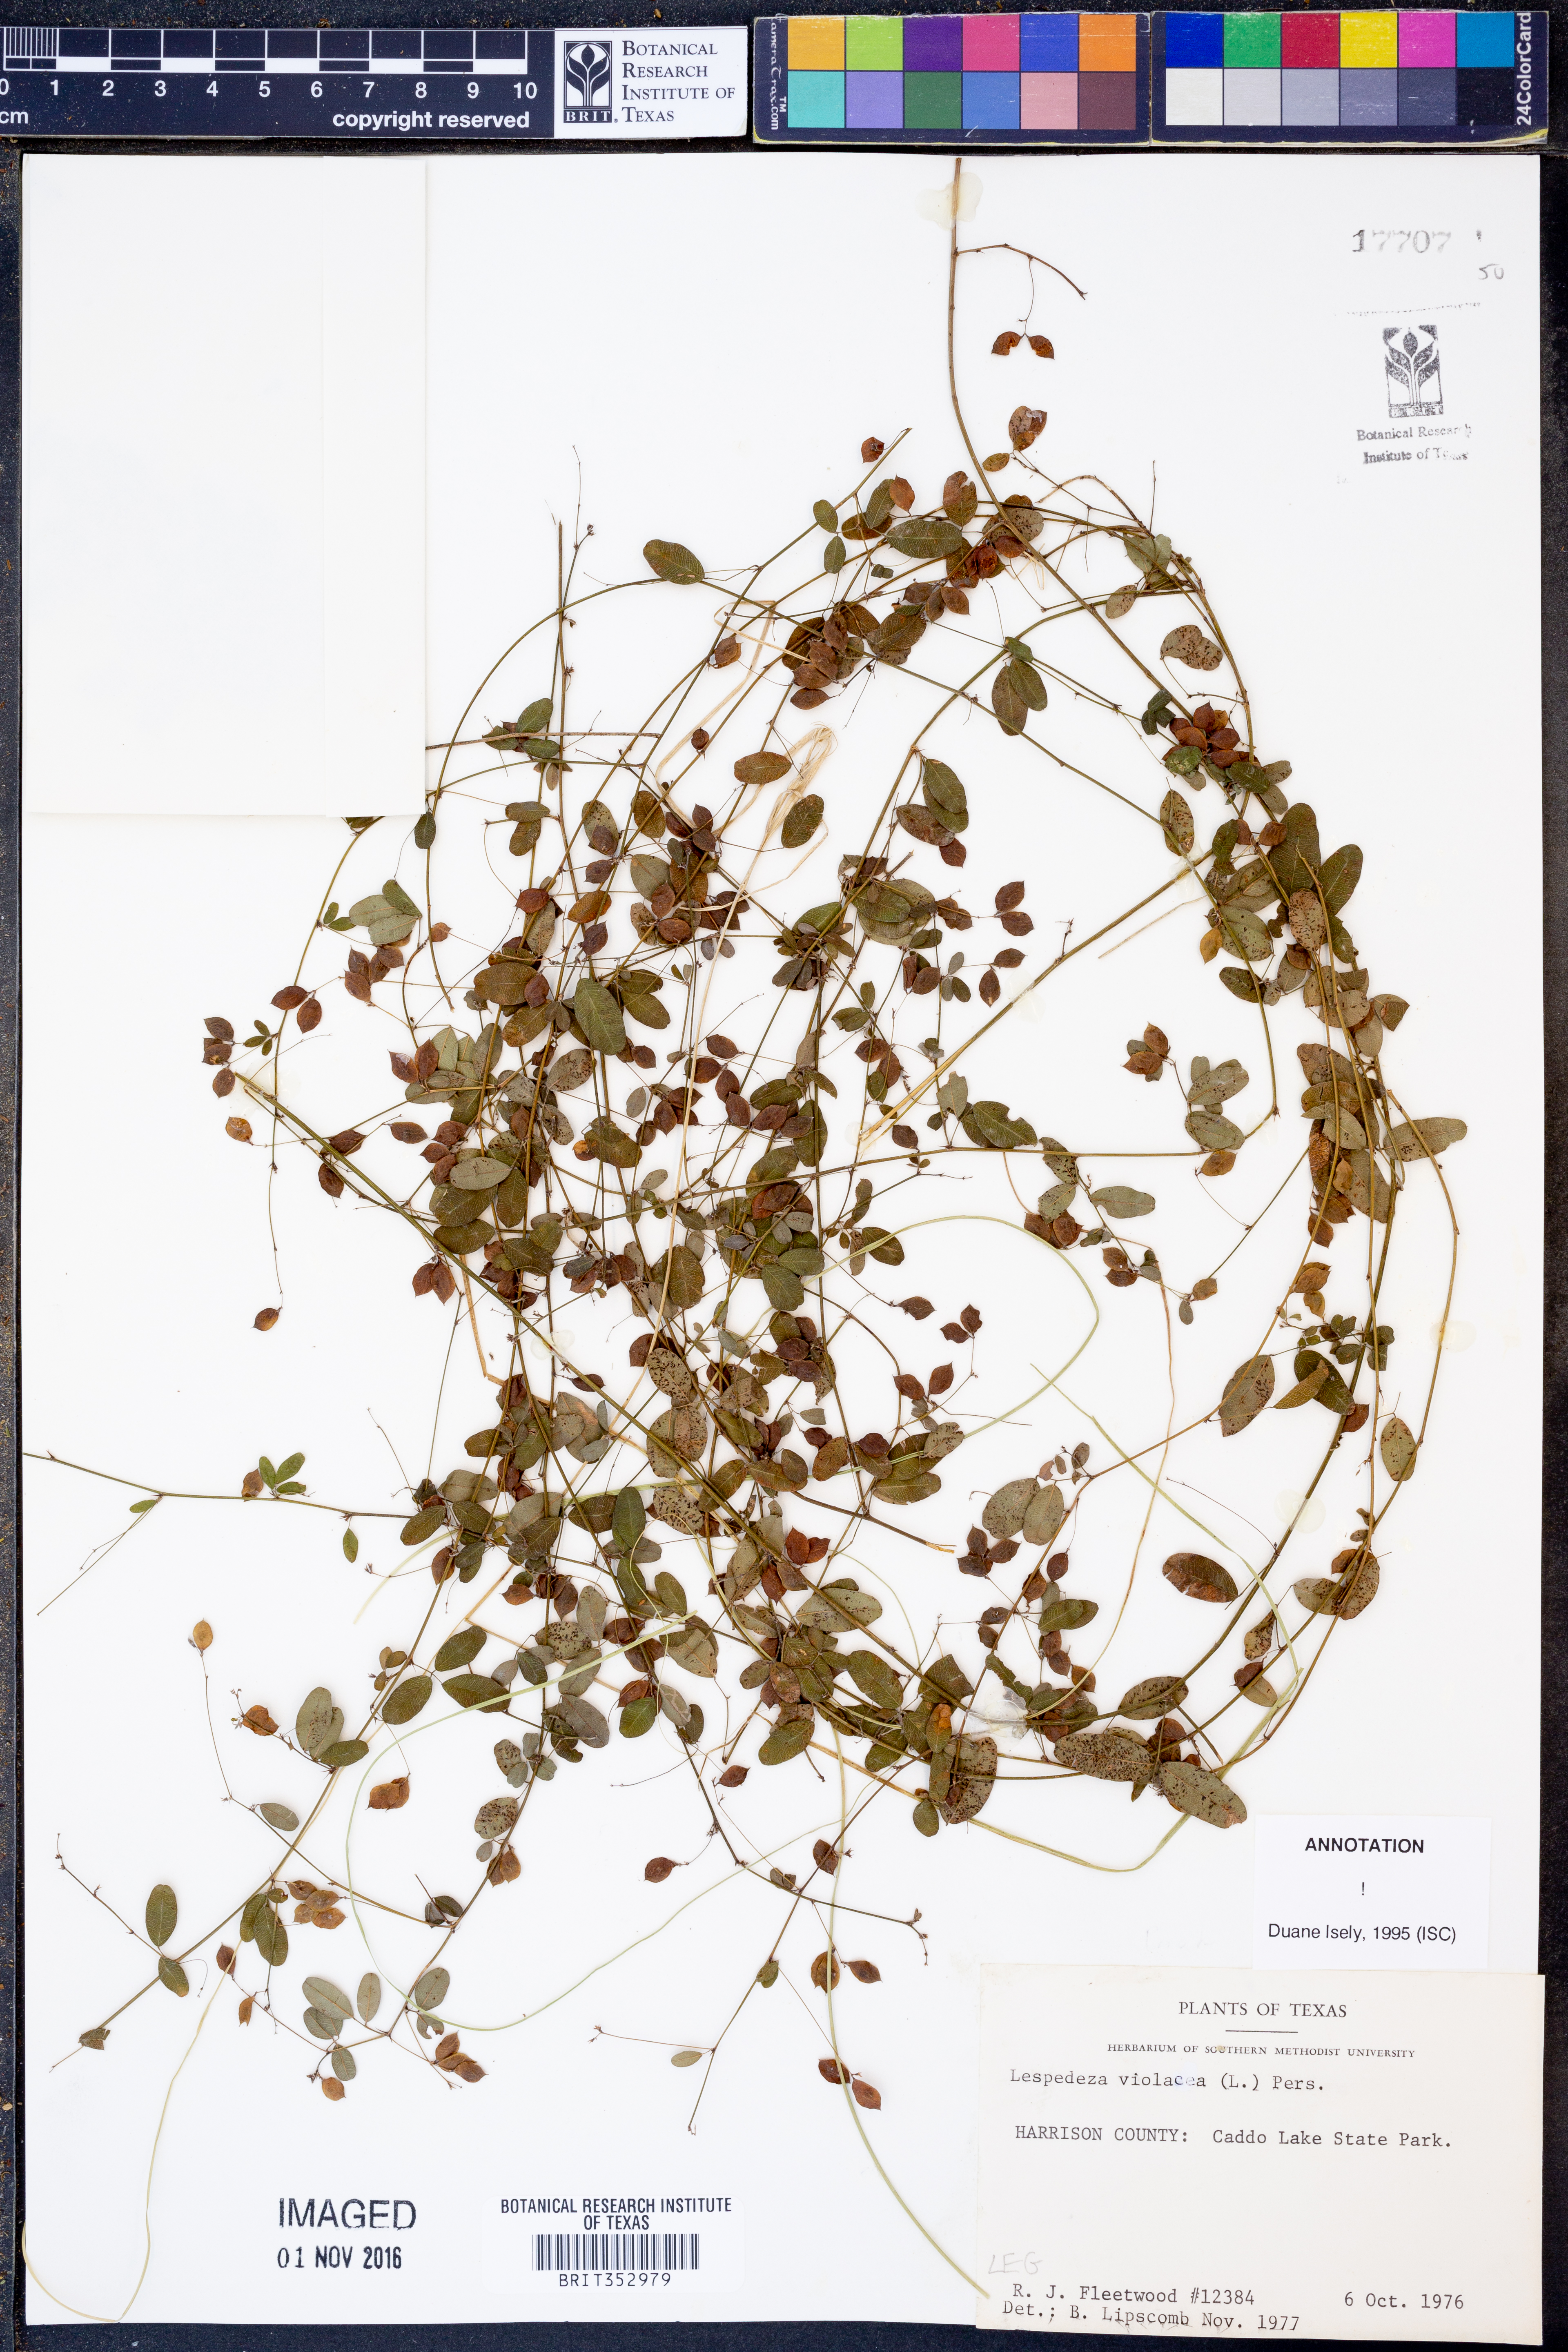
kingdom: Plantae
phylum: Tracheophyta
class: Magnoliopsida
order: Fabales
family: Fabaceae
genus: Lespedeza
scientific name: Lespedeza violacea
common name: Wand bush-clover
